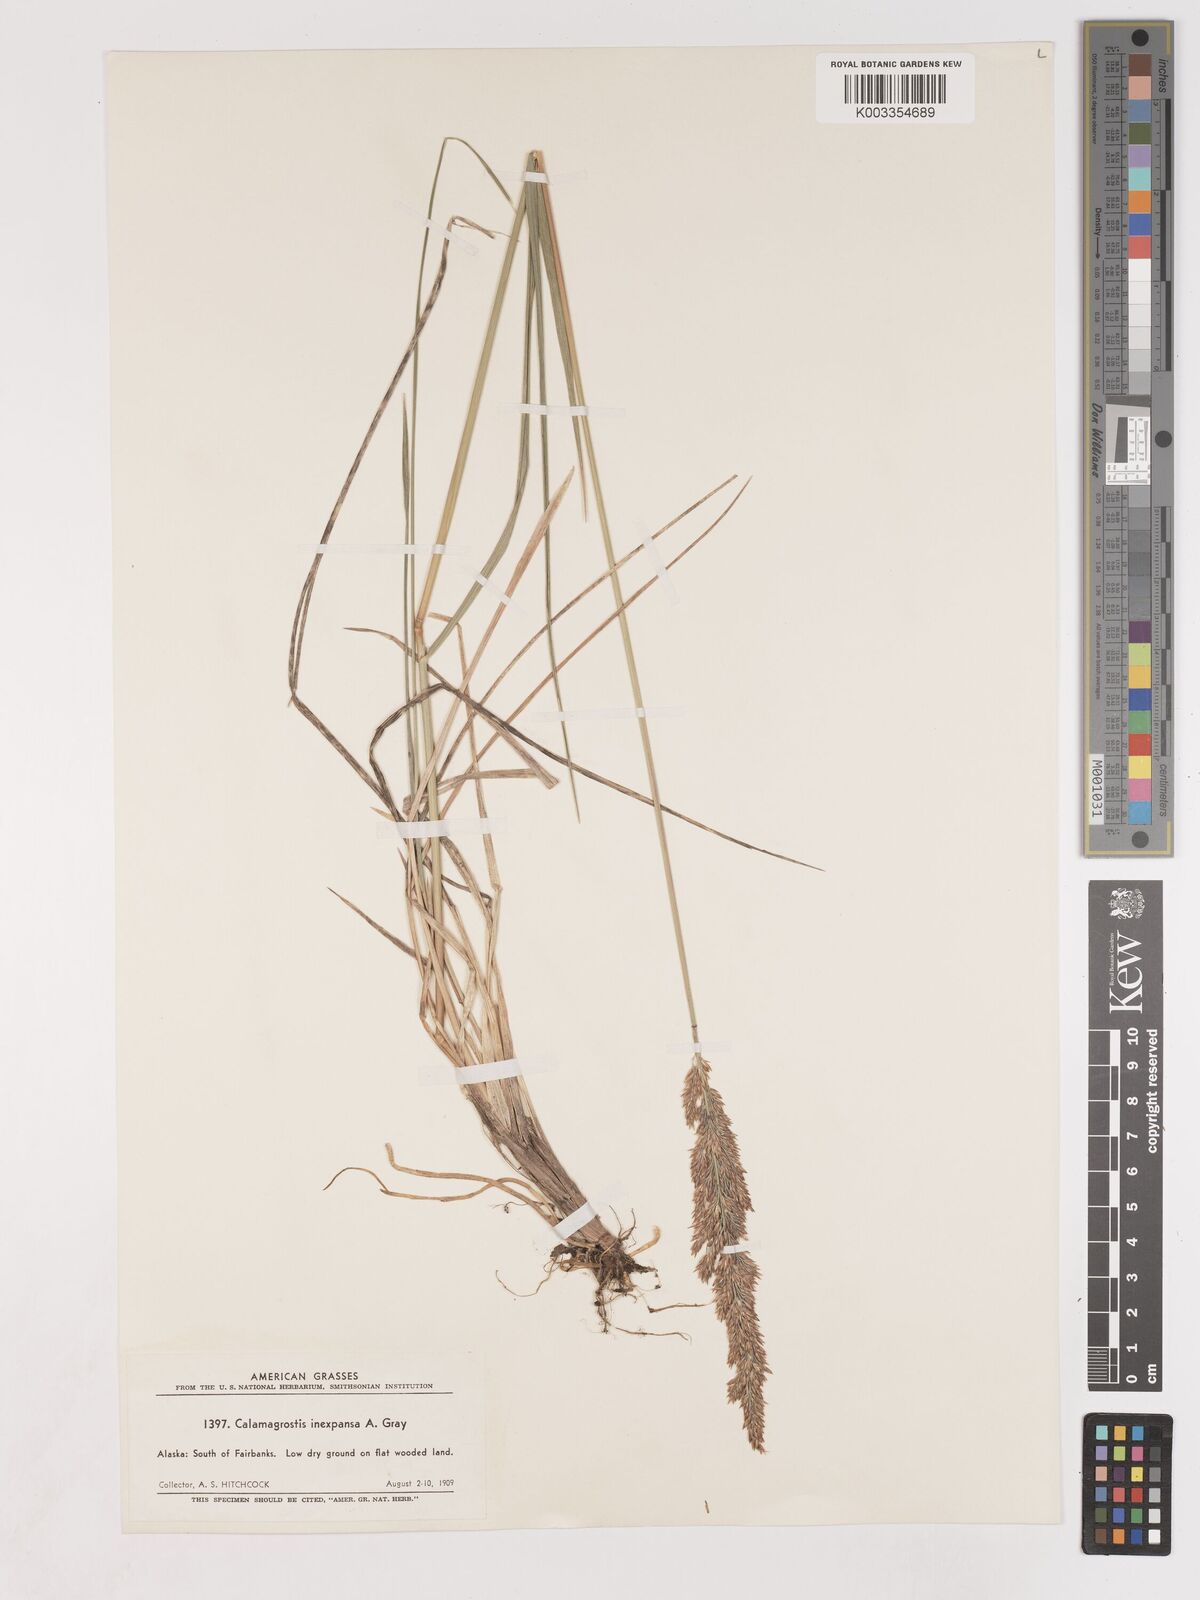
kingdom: Plantae
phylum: Tracheophyta
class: Liliopsida
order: Poales
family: Poaceae
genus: Cinnagrostis
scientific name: Cinnagrostis recta
